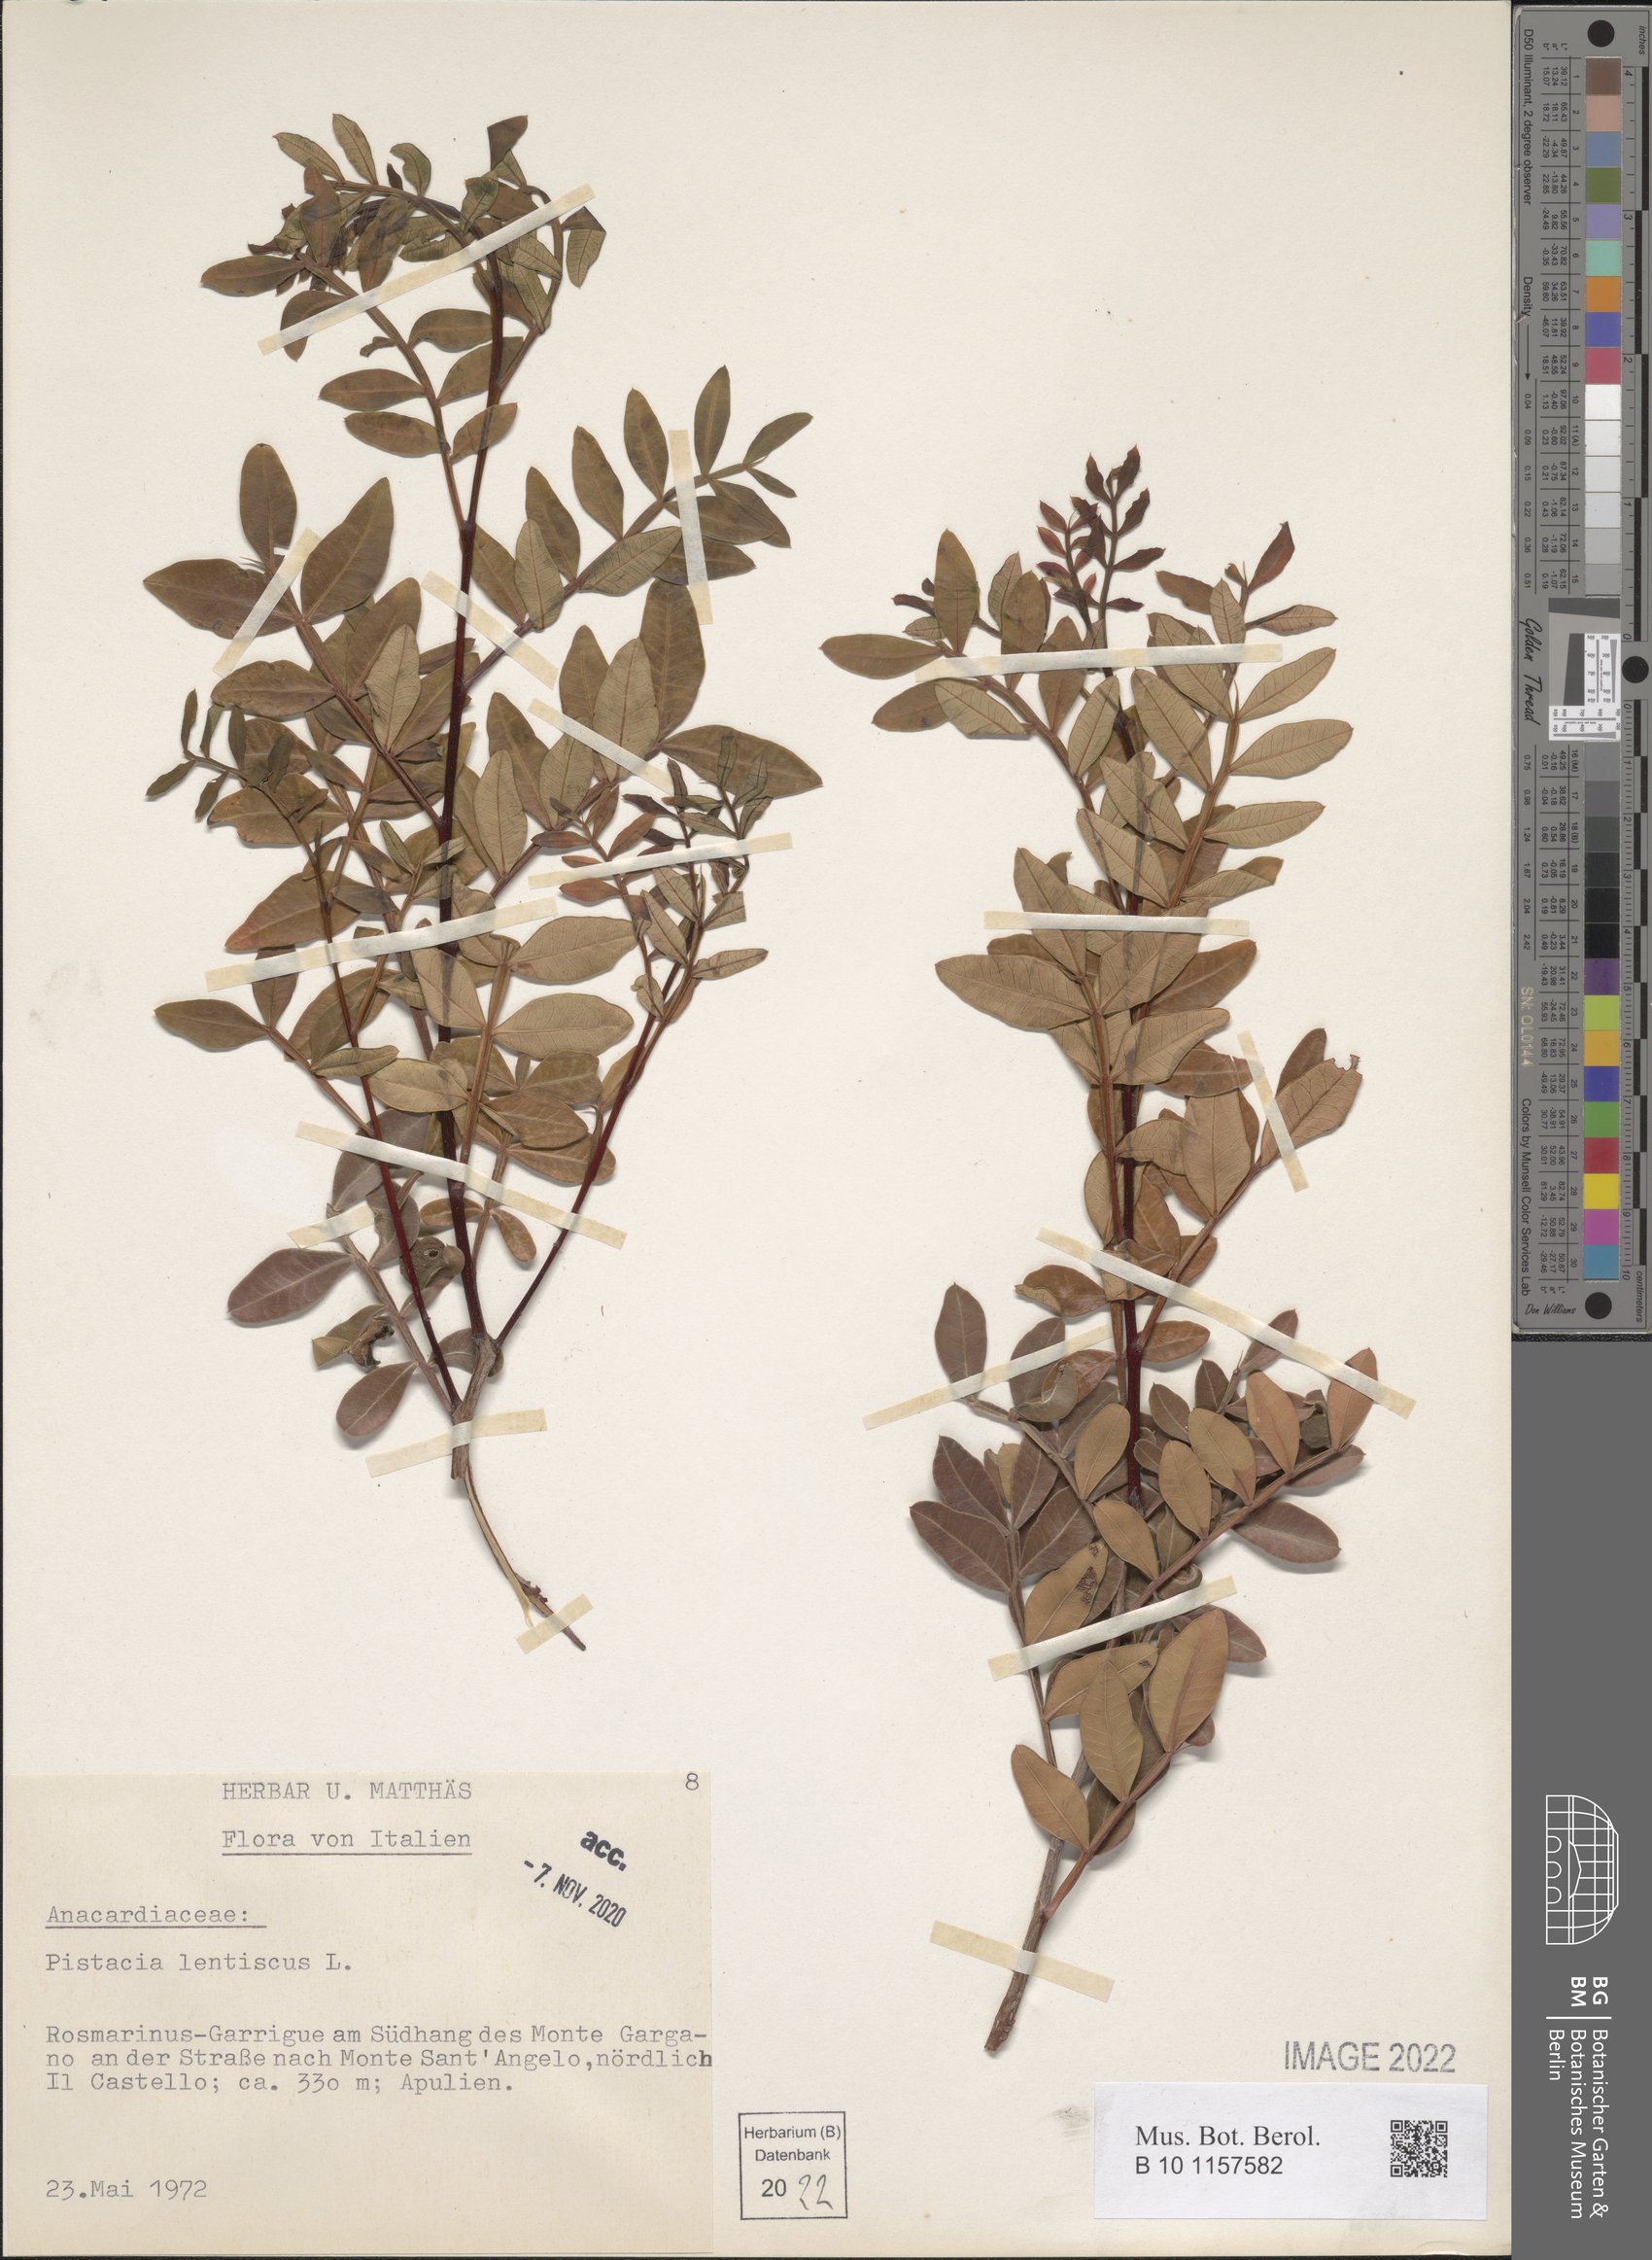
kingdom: Plantae
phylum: Tracheophyta
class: Magnoliopsida
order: Sapindales
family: Anacardiaceae
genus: Pistacia
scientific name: Pistacia lentiscus
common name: Lentisk
